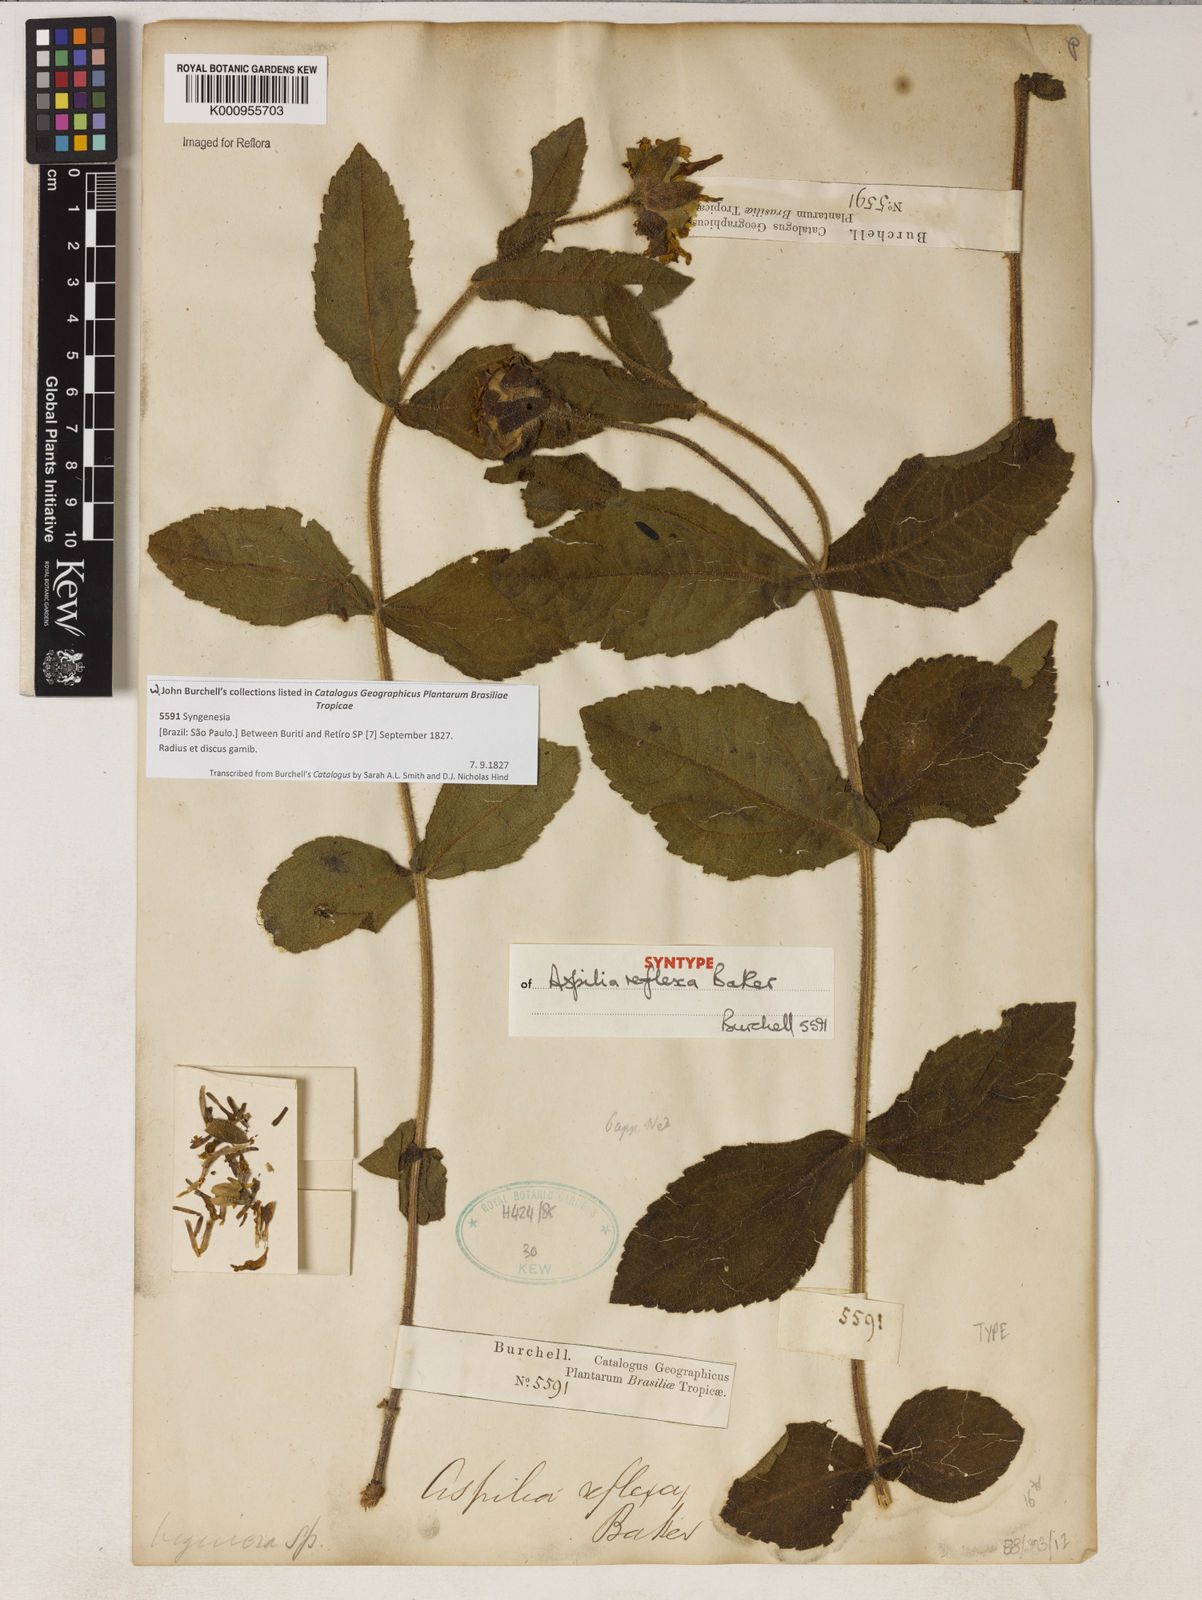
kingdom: Plantae
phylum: Tracheophyta
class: Magnoliopsida
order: Asterales
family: Asteraceae
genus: Wedelia
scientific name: Wedelia reflexa
